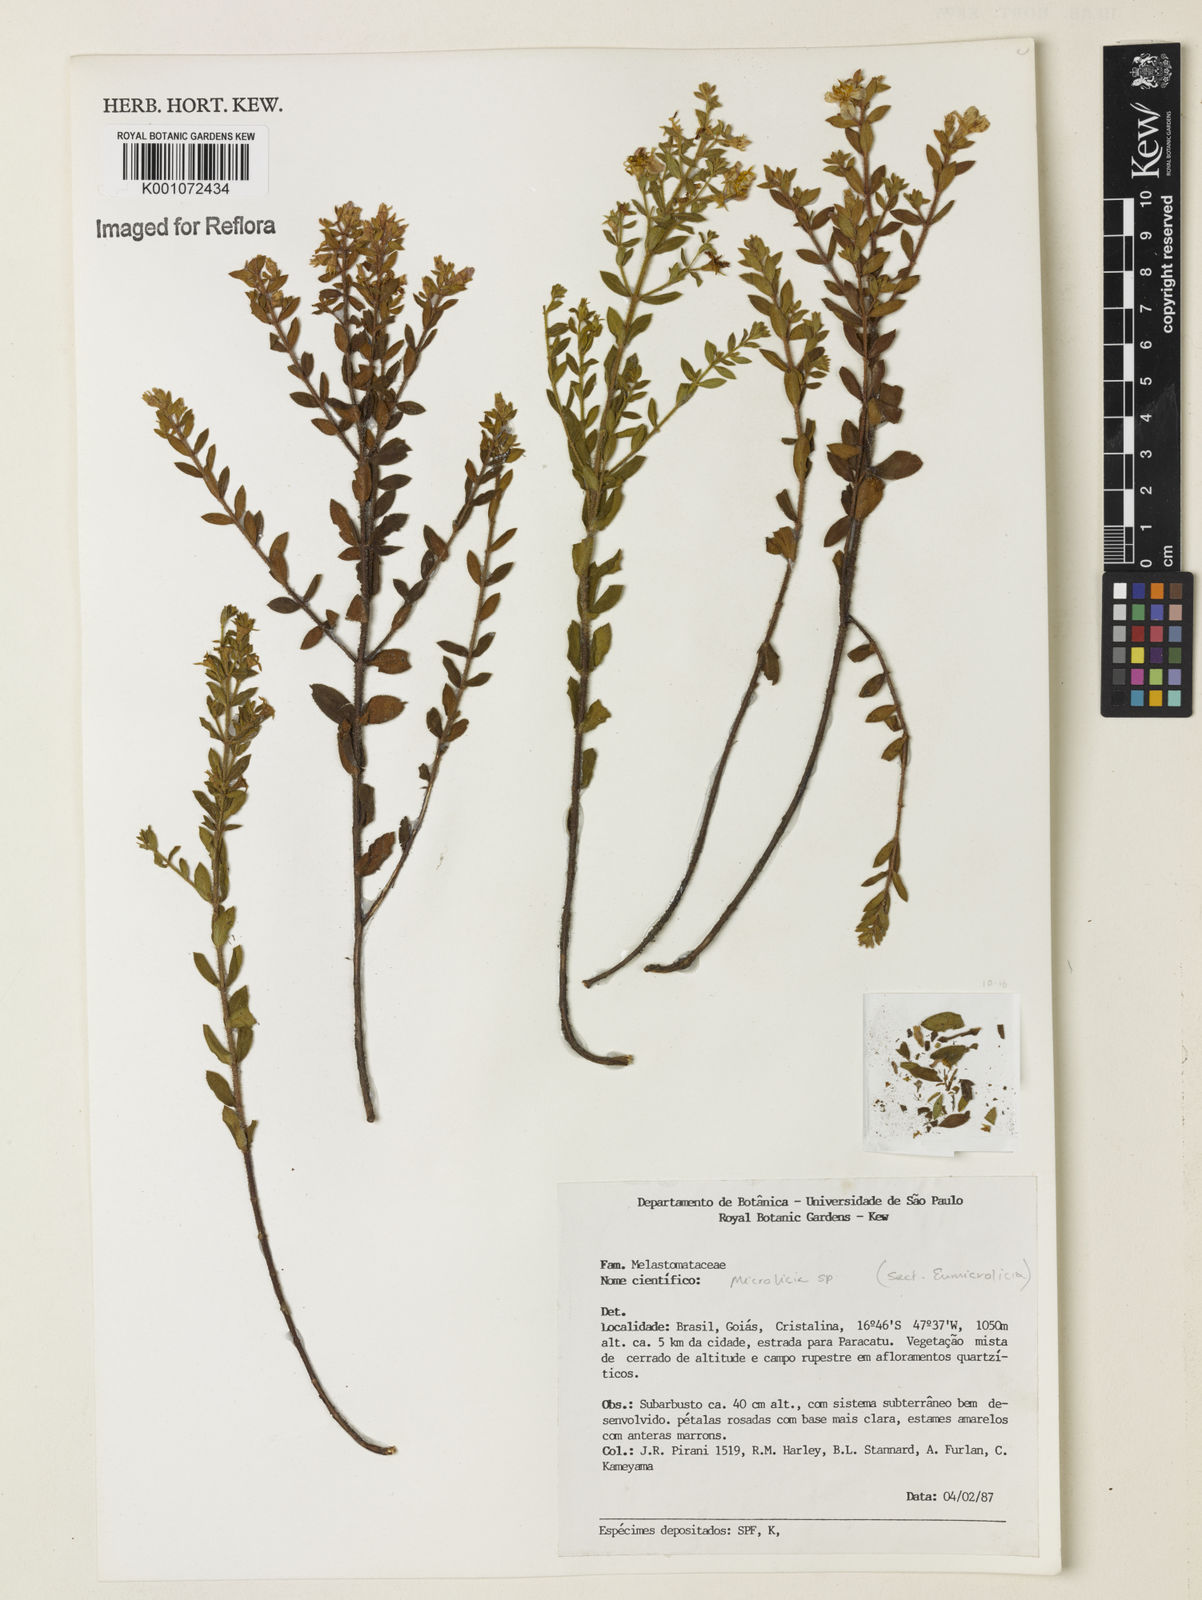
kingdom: Plantae
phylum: Tracheophyta
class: Magnoliopsida
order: Myrtales
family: Melastomataceae
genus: Microlicia
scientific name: Microlicia
